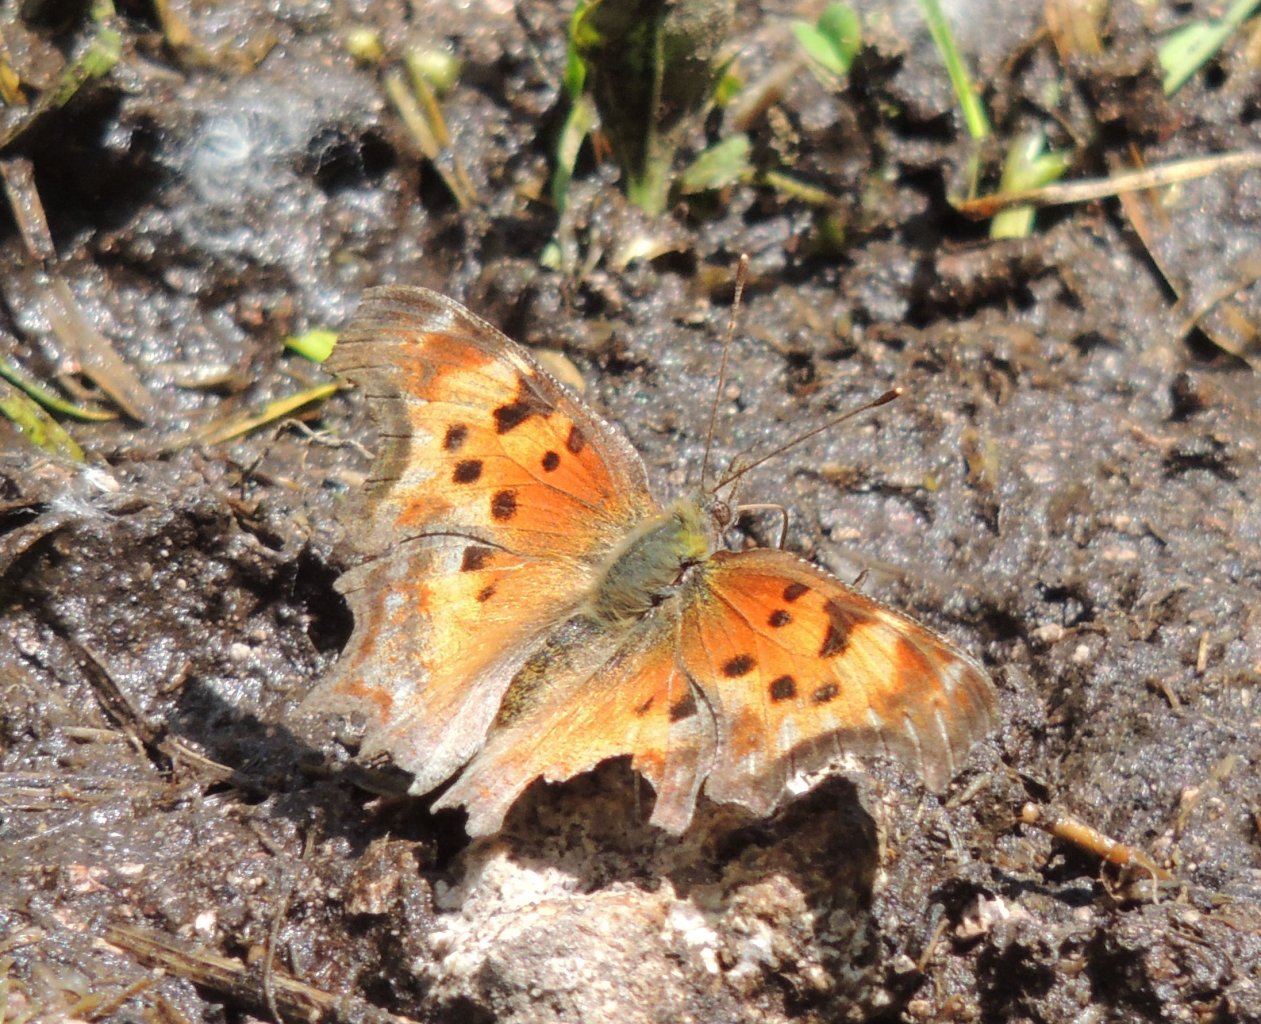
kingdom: Animalia
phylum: Arthropoda
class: Insecta
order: Lepidoptera
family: Nymphalidae
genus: Polygonia
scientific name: Polygonia gracilis
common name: Hoary Comma
